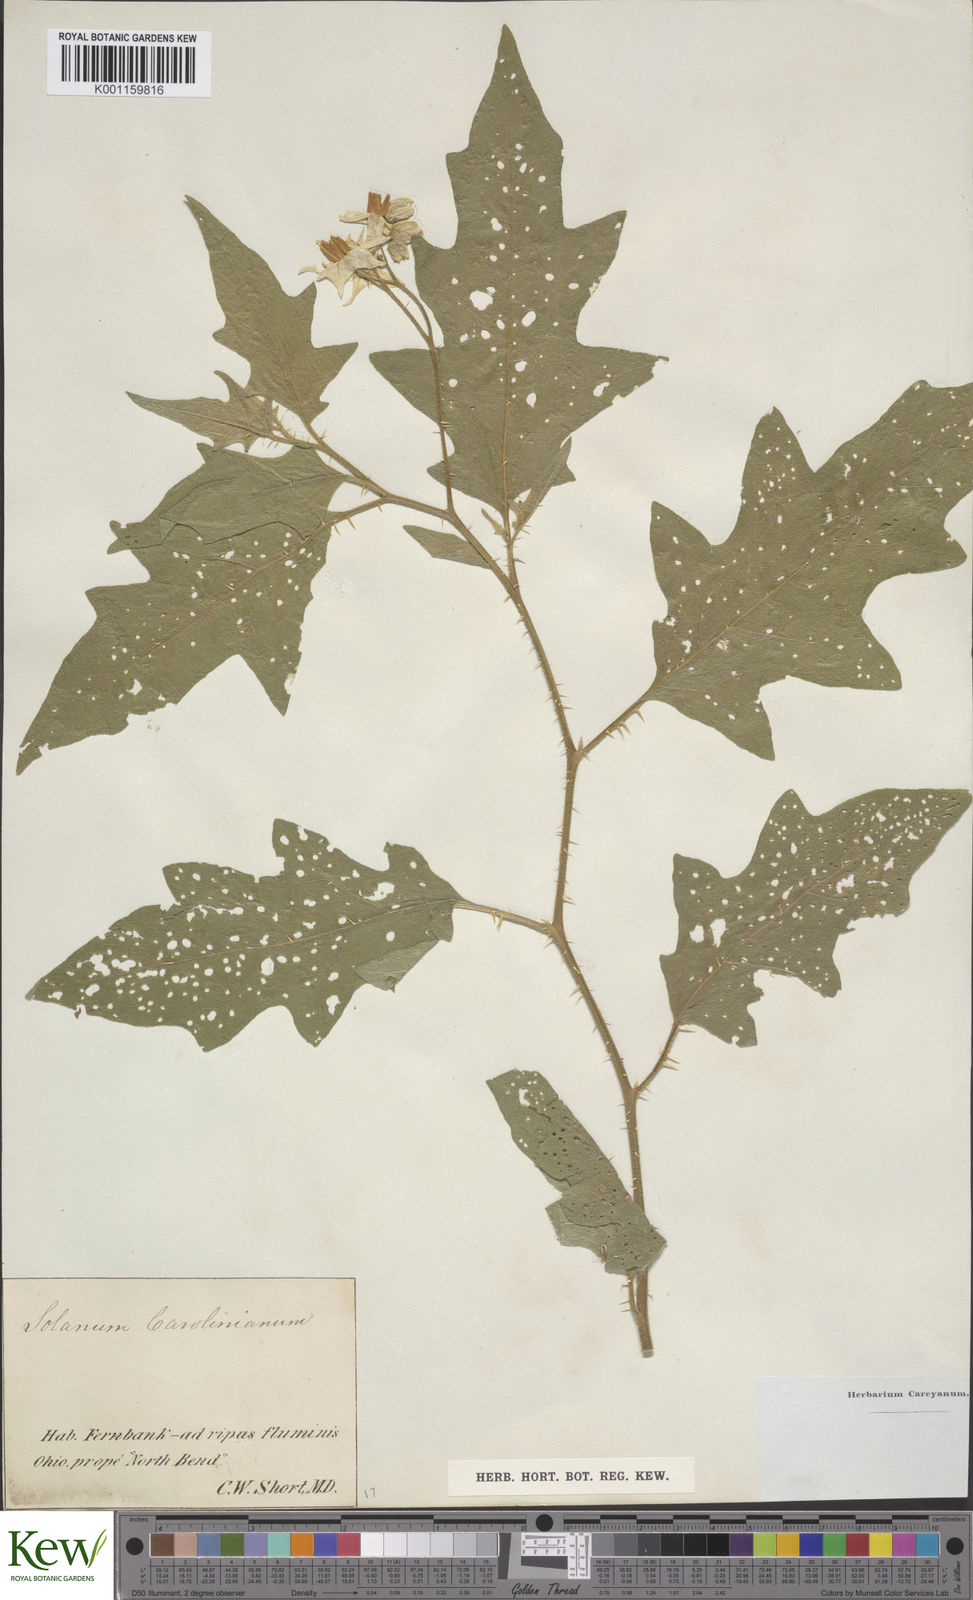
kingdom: Plantae
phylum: Tracheophyta
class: Magnoliopsida
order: Solanales
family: Solanaceae
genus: Solanum
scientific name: Solanum carolinense
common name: Horse-nettle
